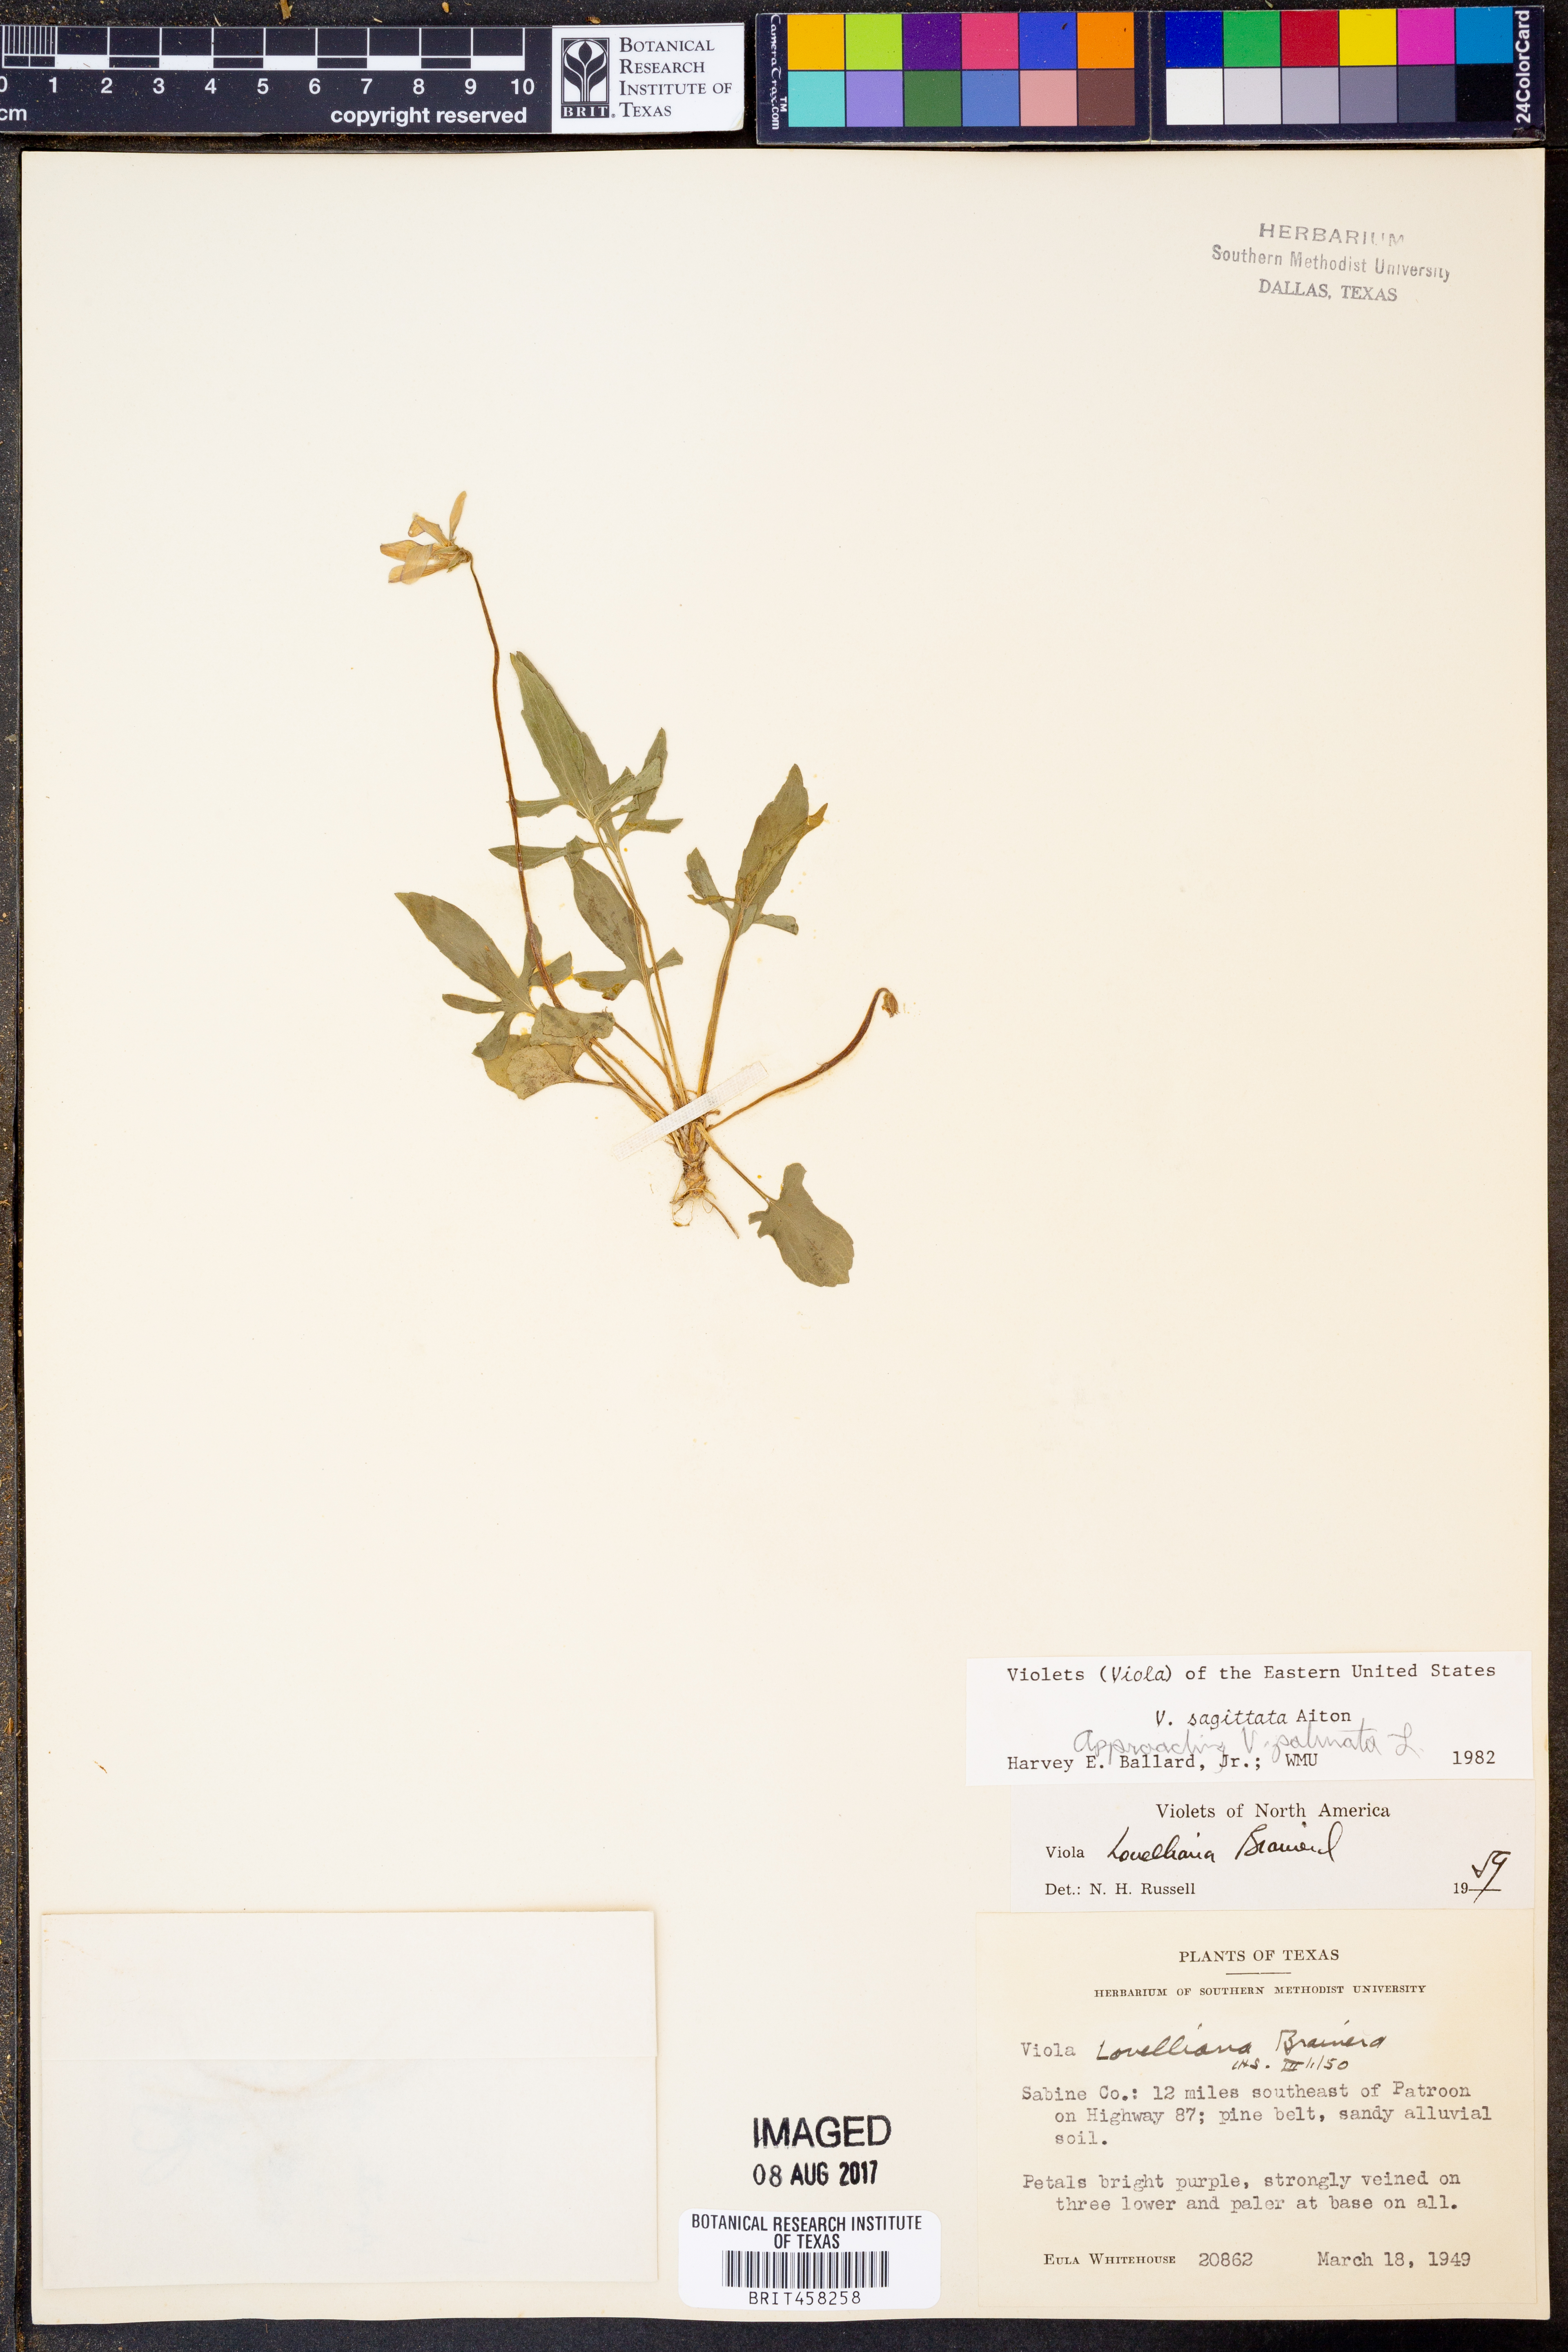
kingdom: Plantae
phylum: Tracheophyta
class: Magnoliopsida
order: Malpighiales
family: Violaceae
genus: Viola
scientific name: Viola sagittata
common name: Arrowhead violet
